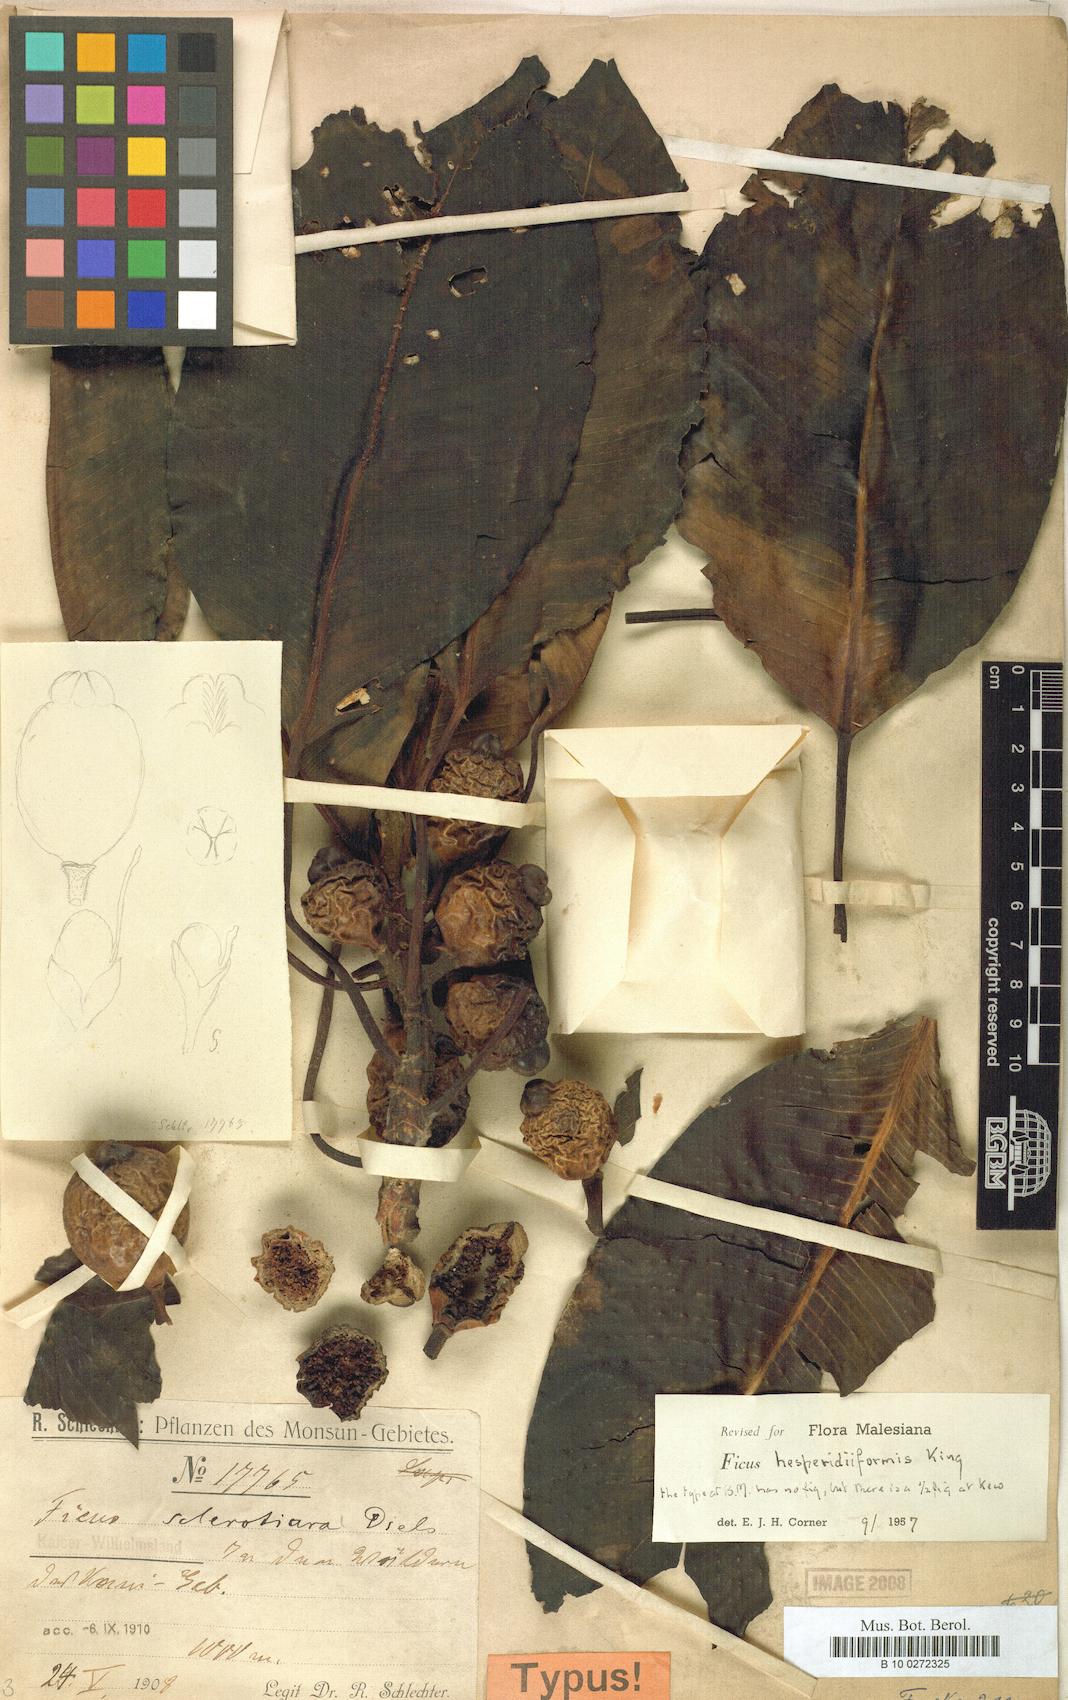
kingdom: Plantae
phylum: Tracheophyta
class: Magnoliopsida
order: Rosales
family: Moraceae
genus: Ficus
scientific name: Ficus hesperidiiformis
